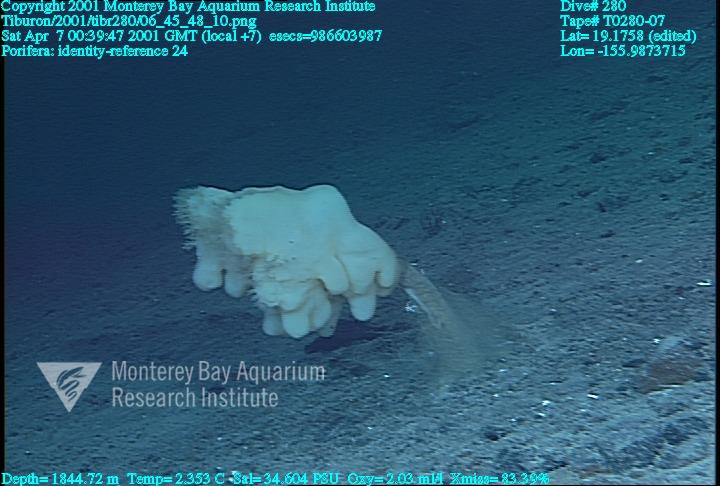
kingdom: Animalia
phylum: Porifera
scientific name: Porifera
